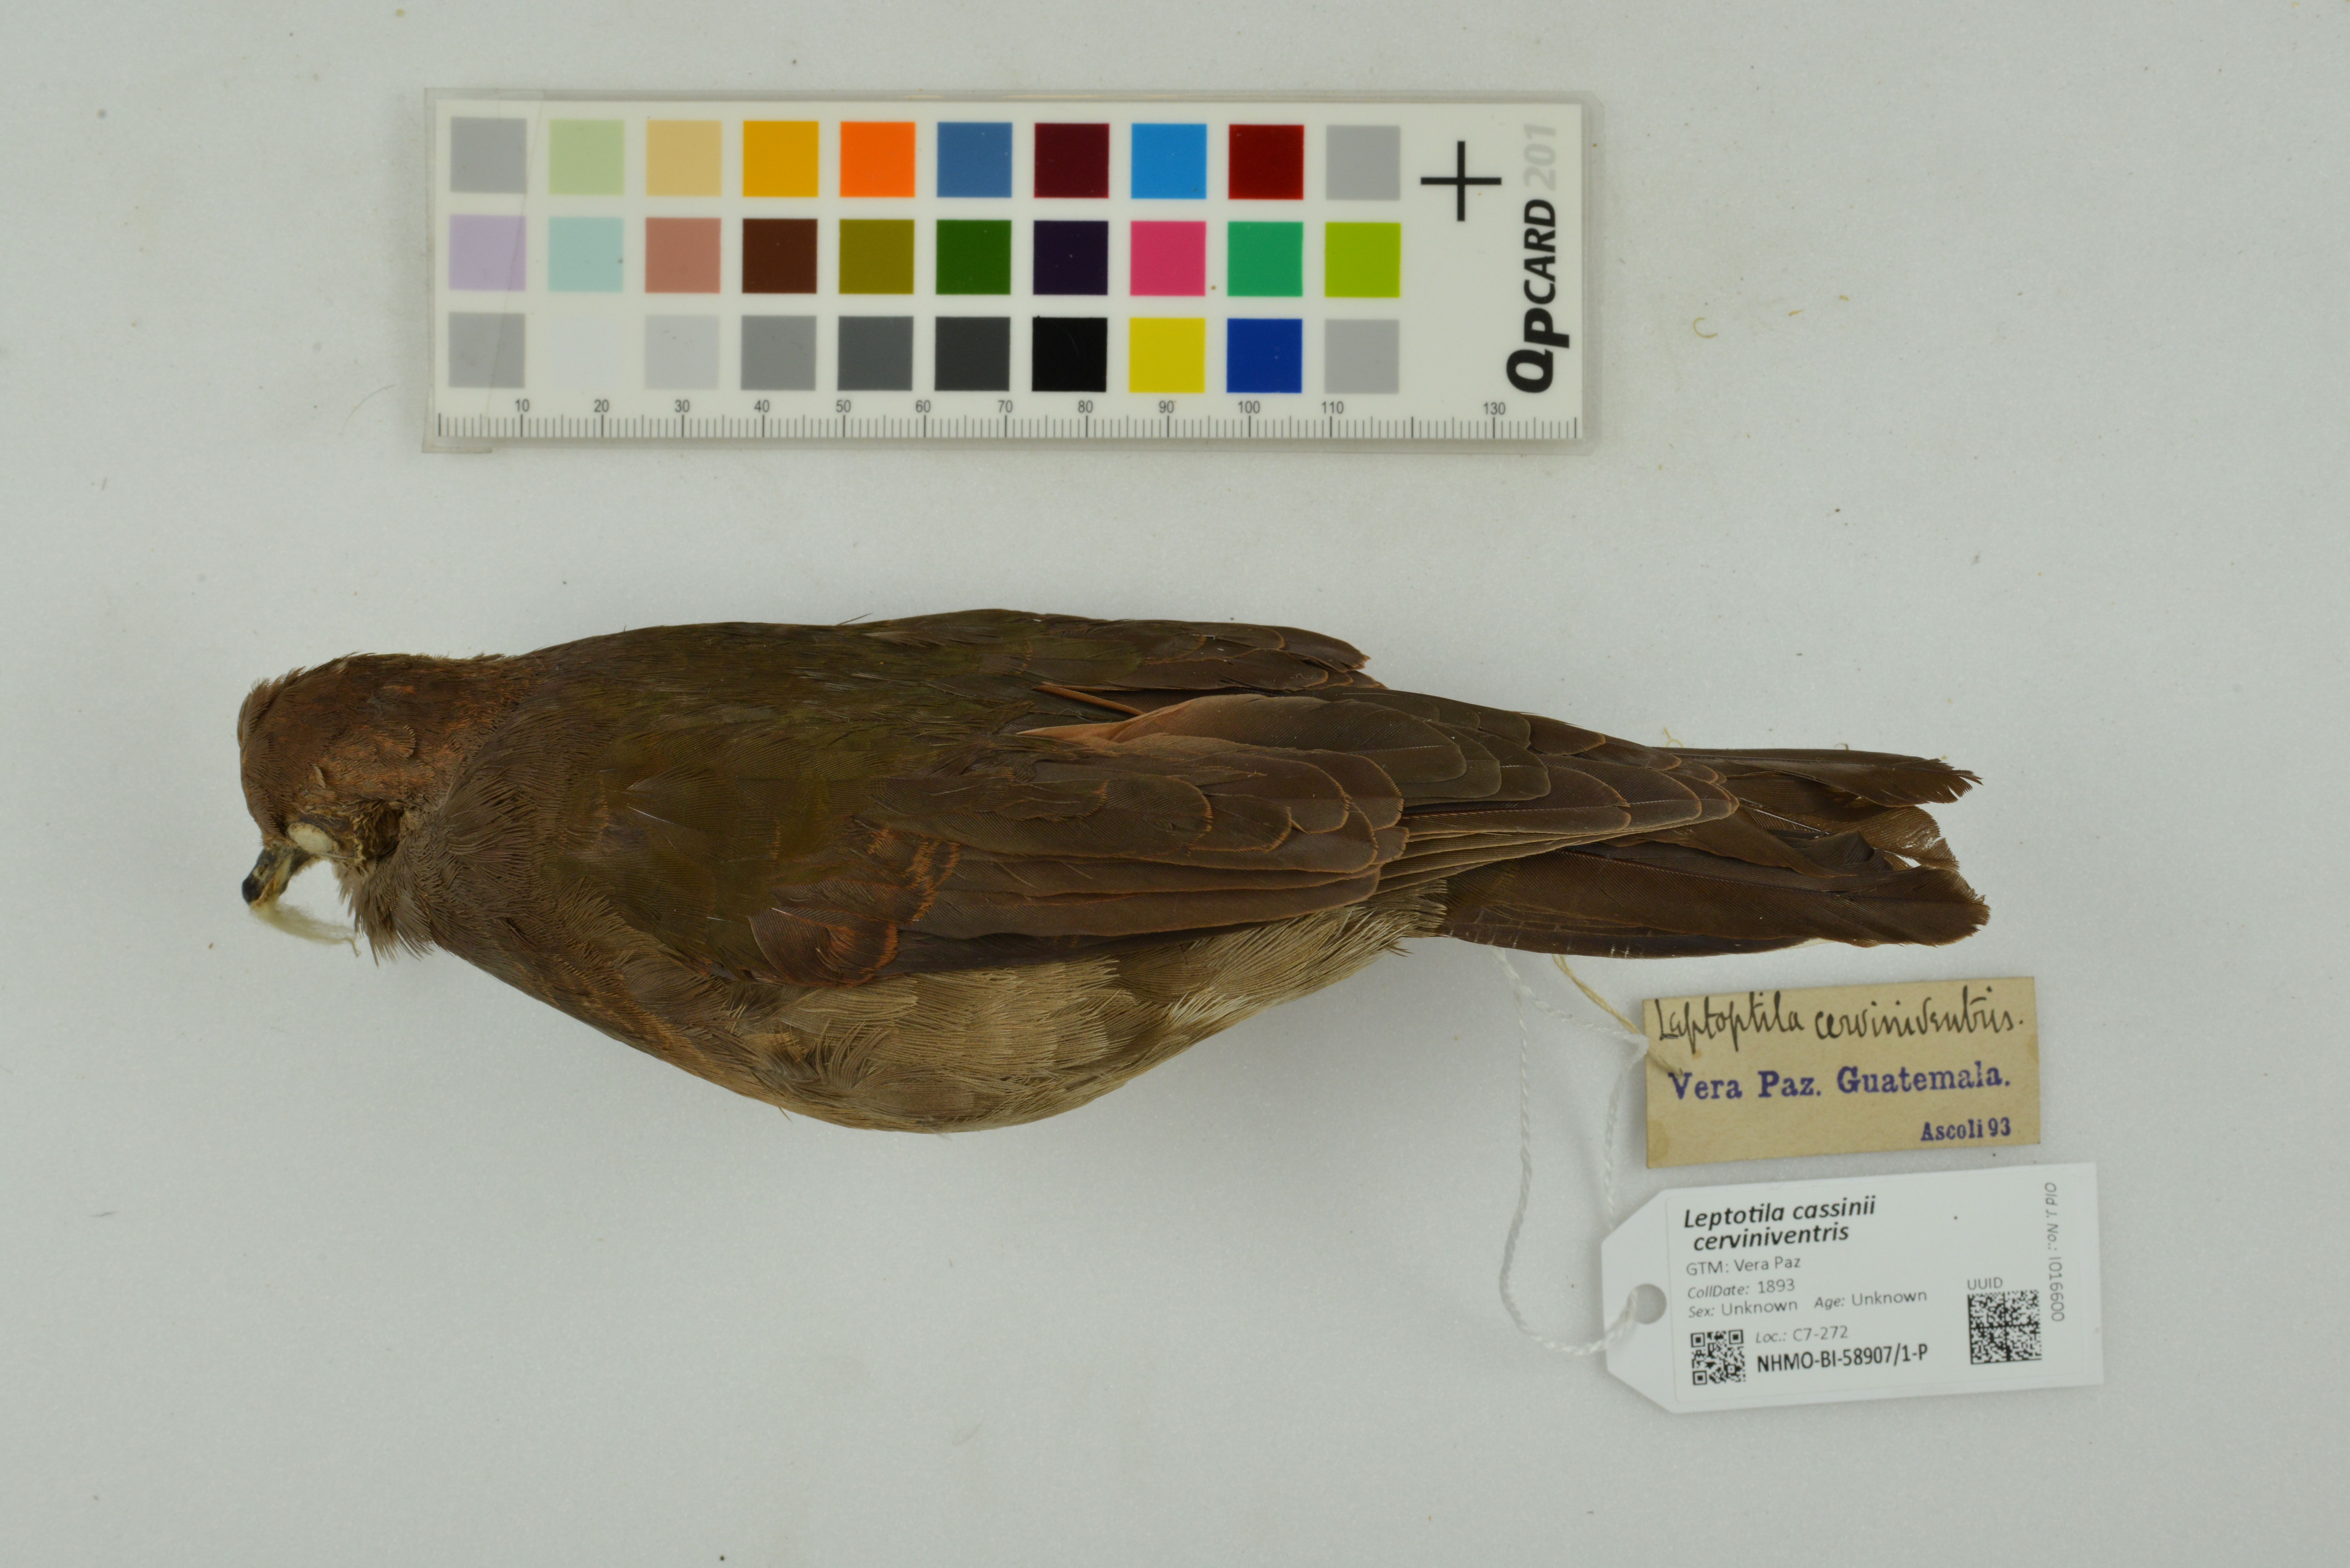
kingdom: Animalia
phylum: Chordata
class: Aves
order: Columbiformes
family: Columbidae
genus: Leptotila
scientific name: Leptotila cassinii
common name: Grey-chested dove
